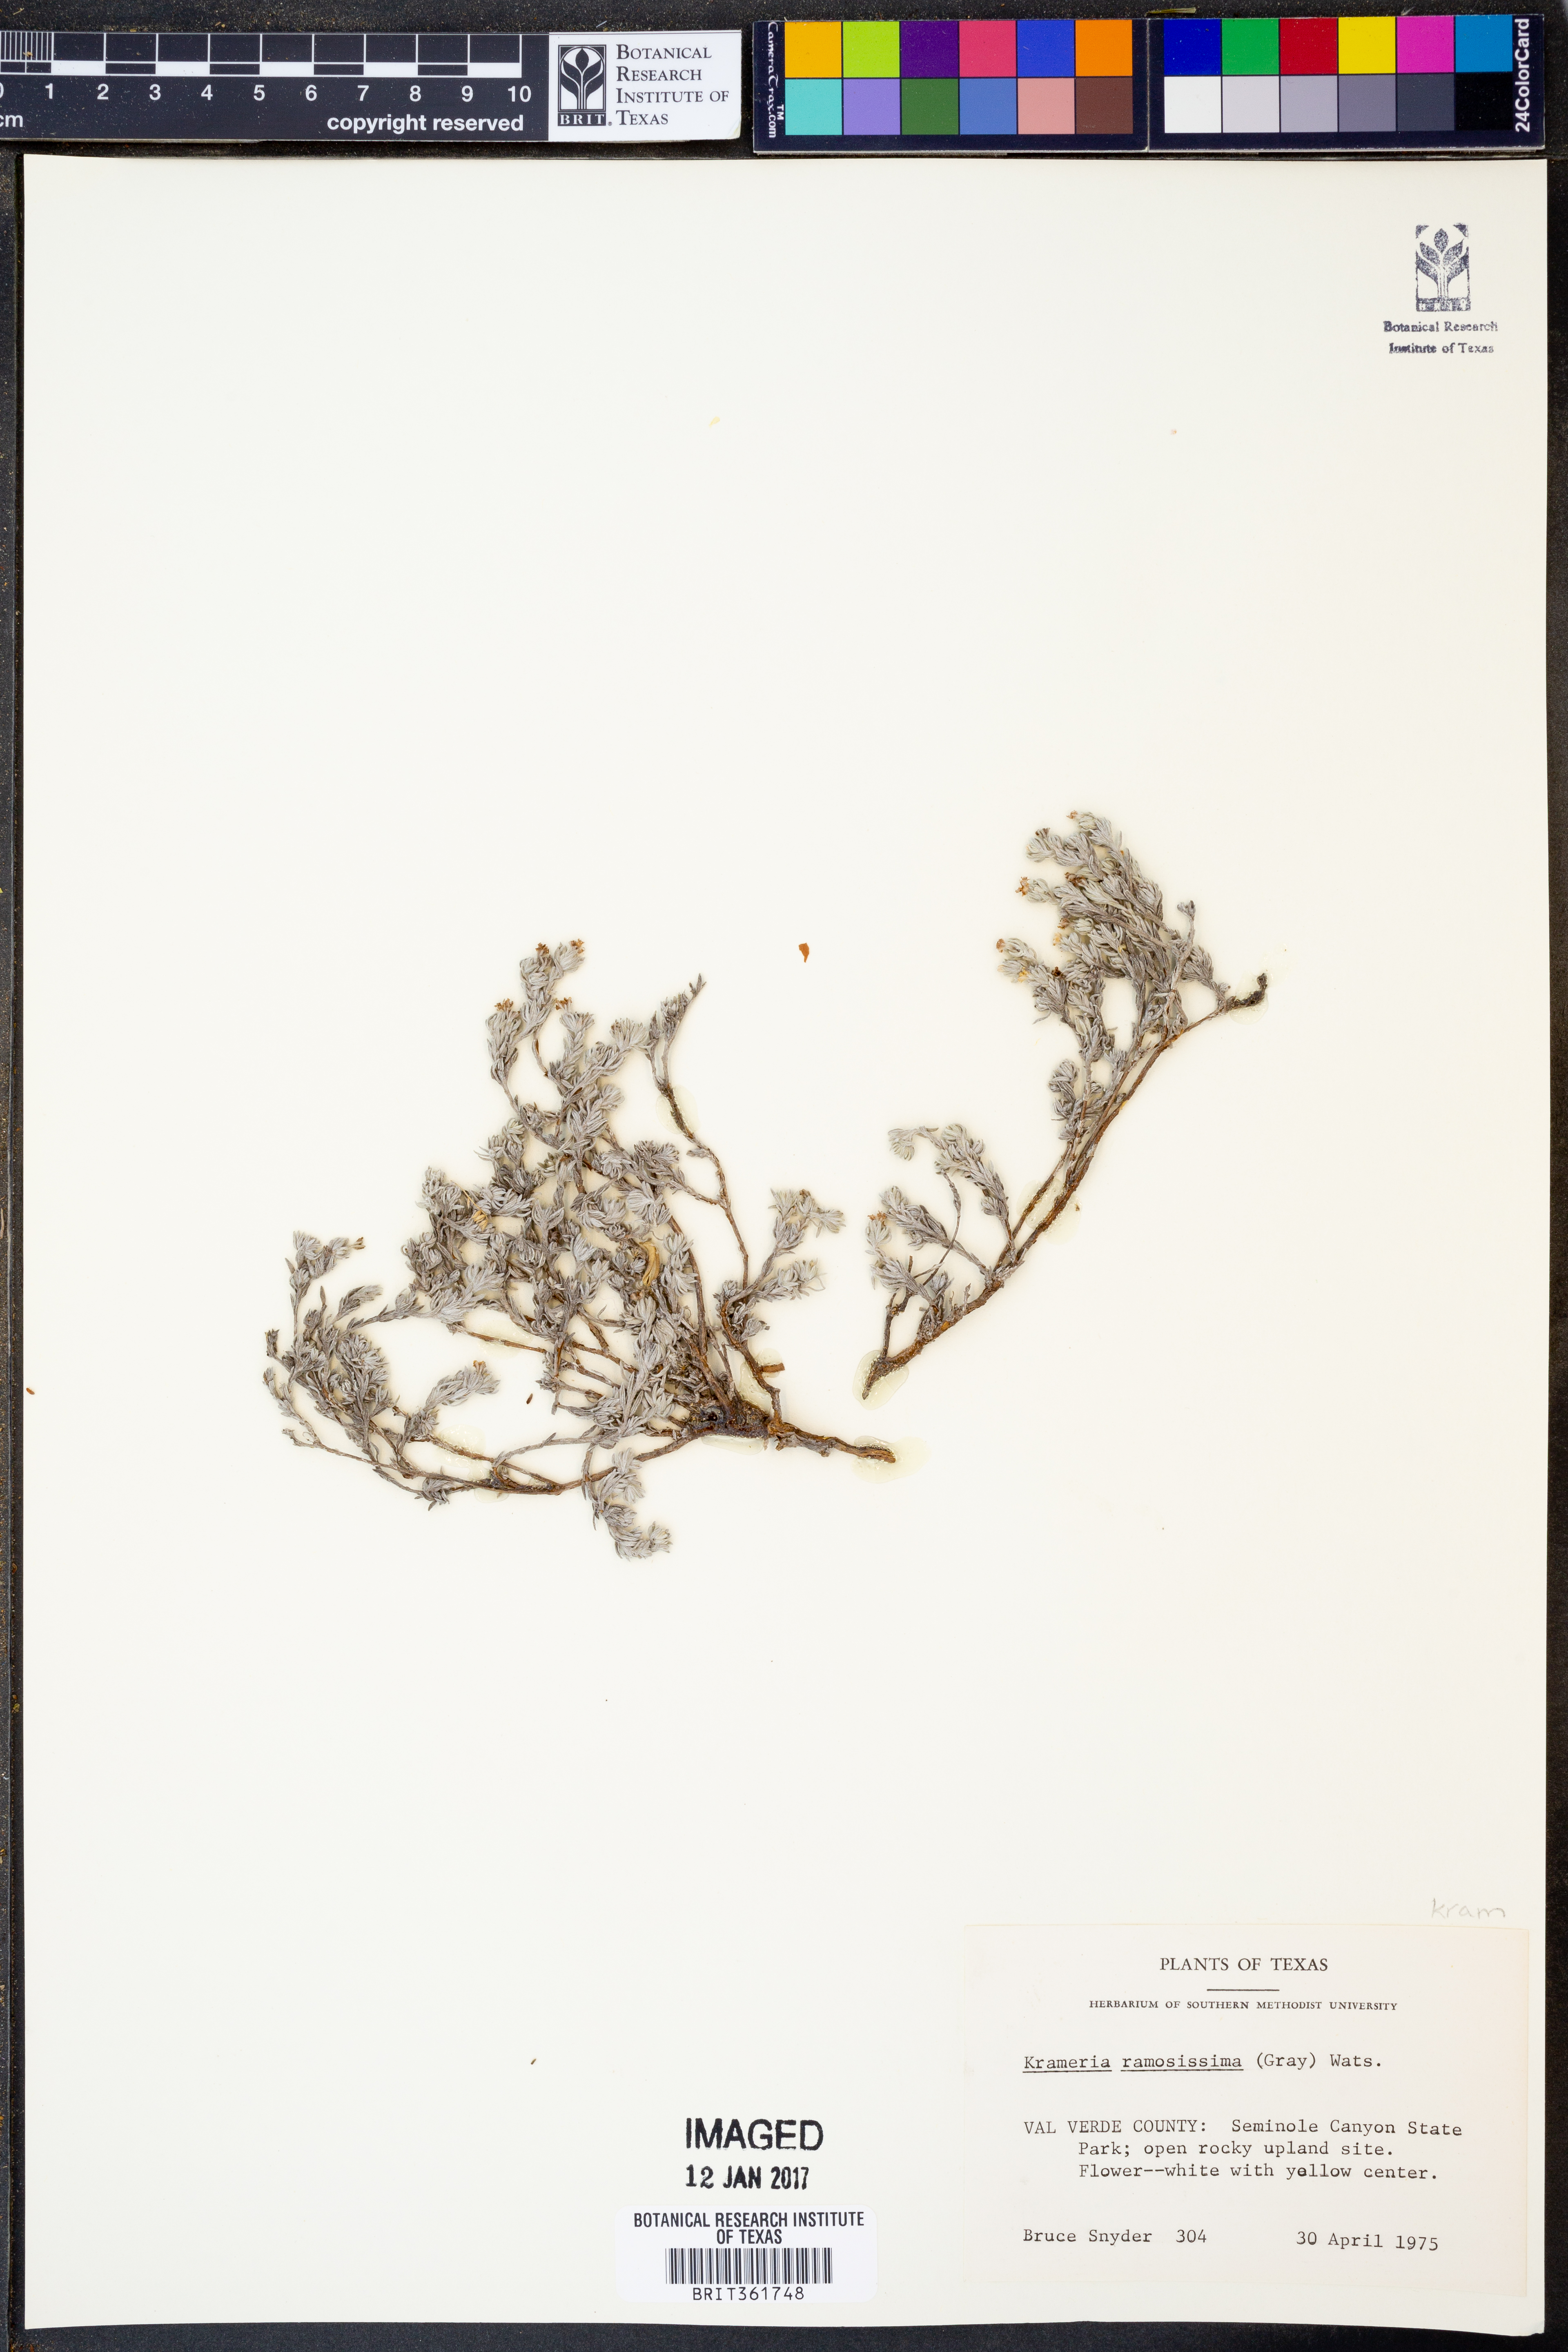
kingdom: Plantae
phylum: Tracheophyta
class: Magnoliopsida
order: Zygophyllales
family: Krameriaceae
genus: Krameria
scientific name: Krameria ramosissima
